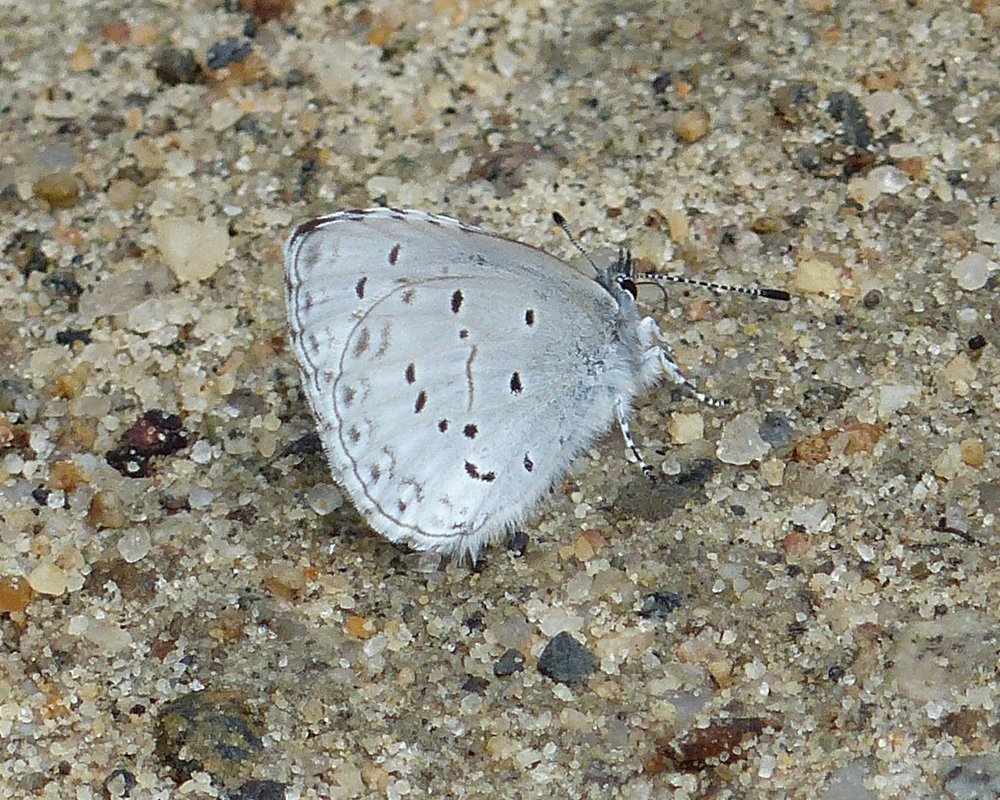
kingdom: Animalia
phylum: Arthropoda
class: Insecta
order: Lepidoptera
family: Lycaenidae
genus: Celastrina
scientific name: Celastrina ladon
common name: Echo Azure
